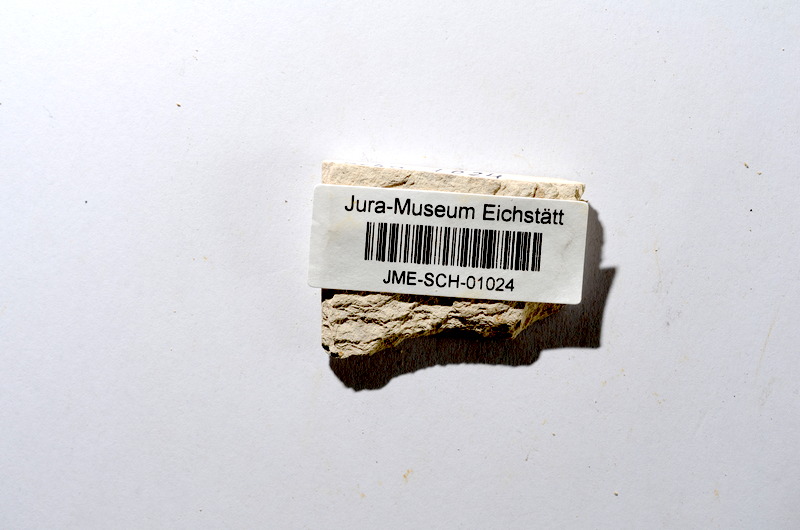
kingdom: Animalia
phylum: Chordata
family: Ascalaboidae
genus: Tharsis
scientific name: Tharsis dubius
